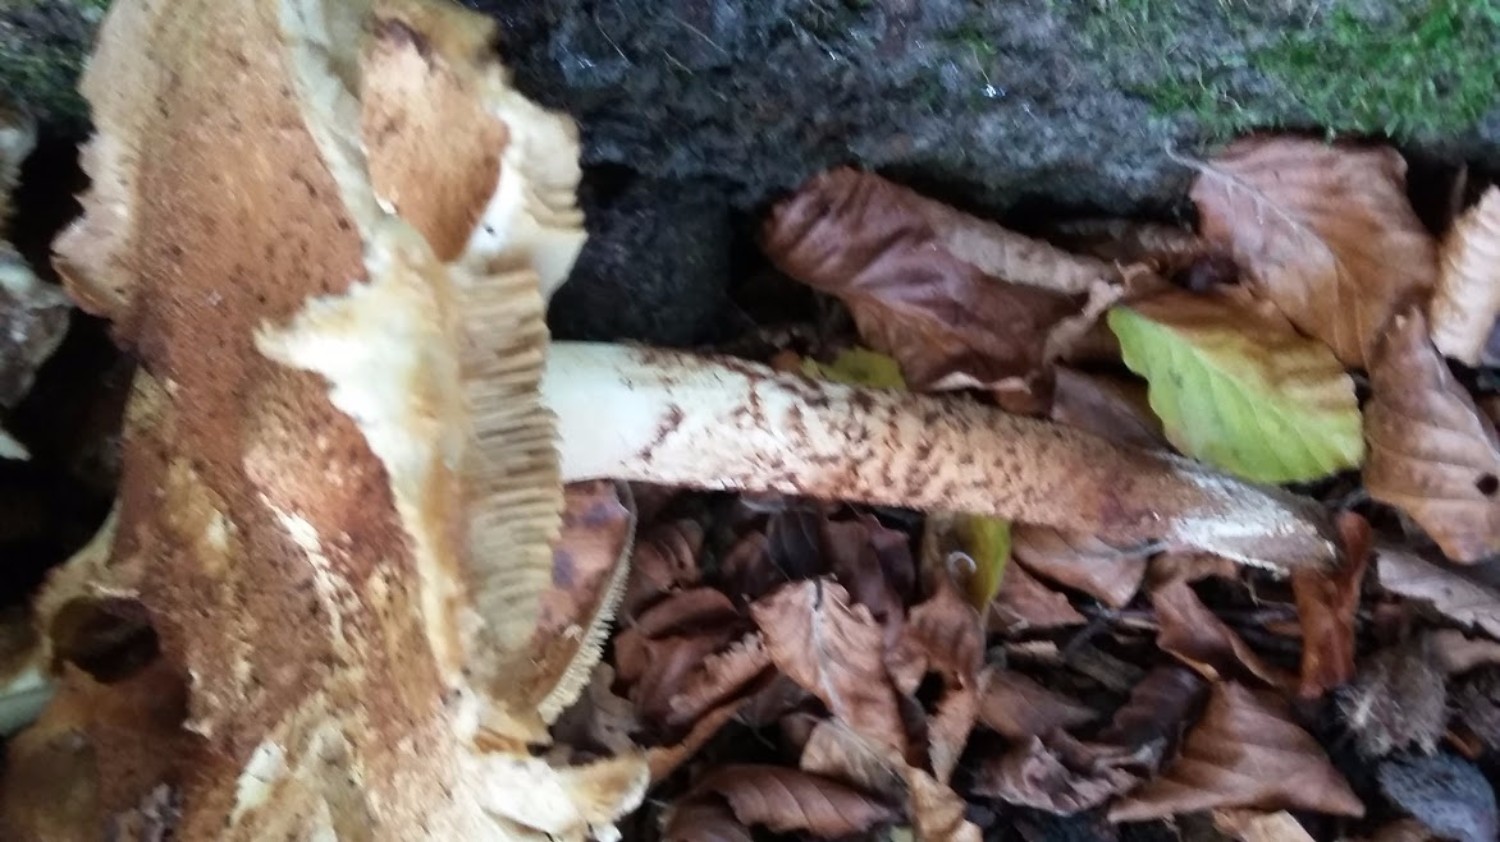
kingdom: Fungi
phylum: Basidiomycota
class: Agaricomycetes
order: Agaricales
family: Strophariaceae
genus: Pholiota
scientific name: Pholiota squarrosa
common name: krumskællet skælhat
